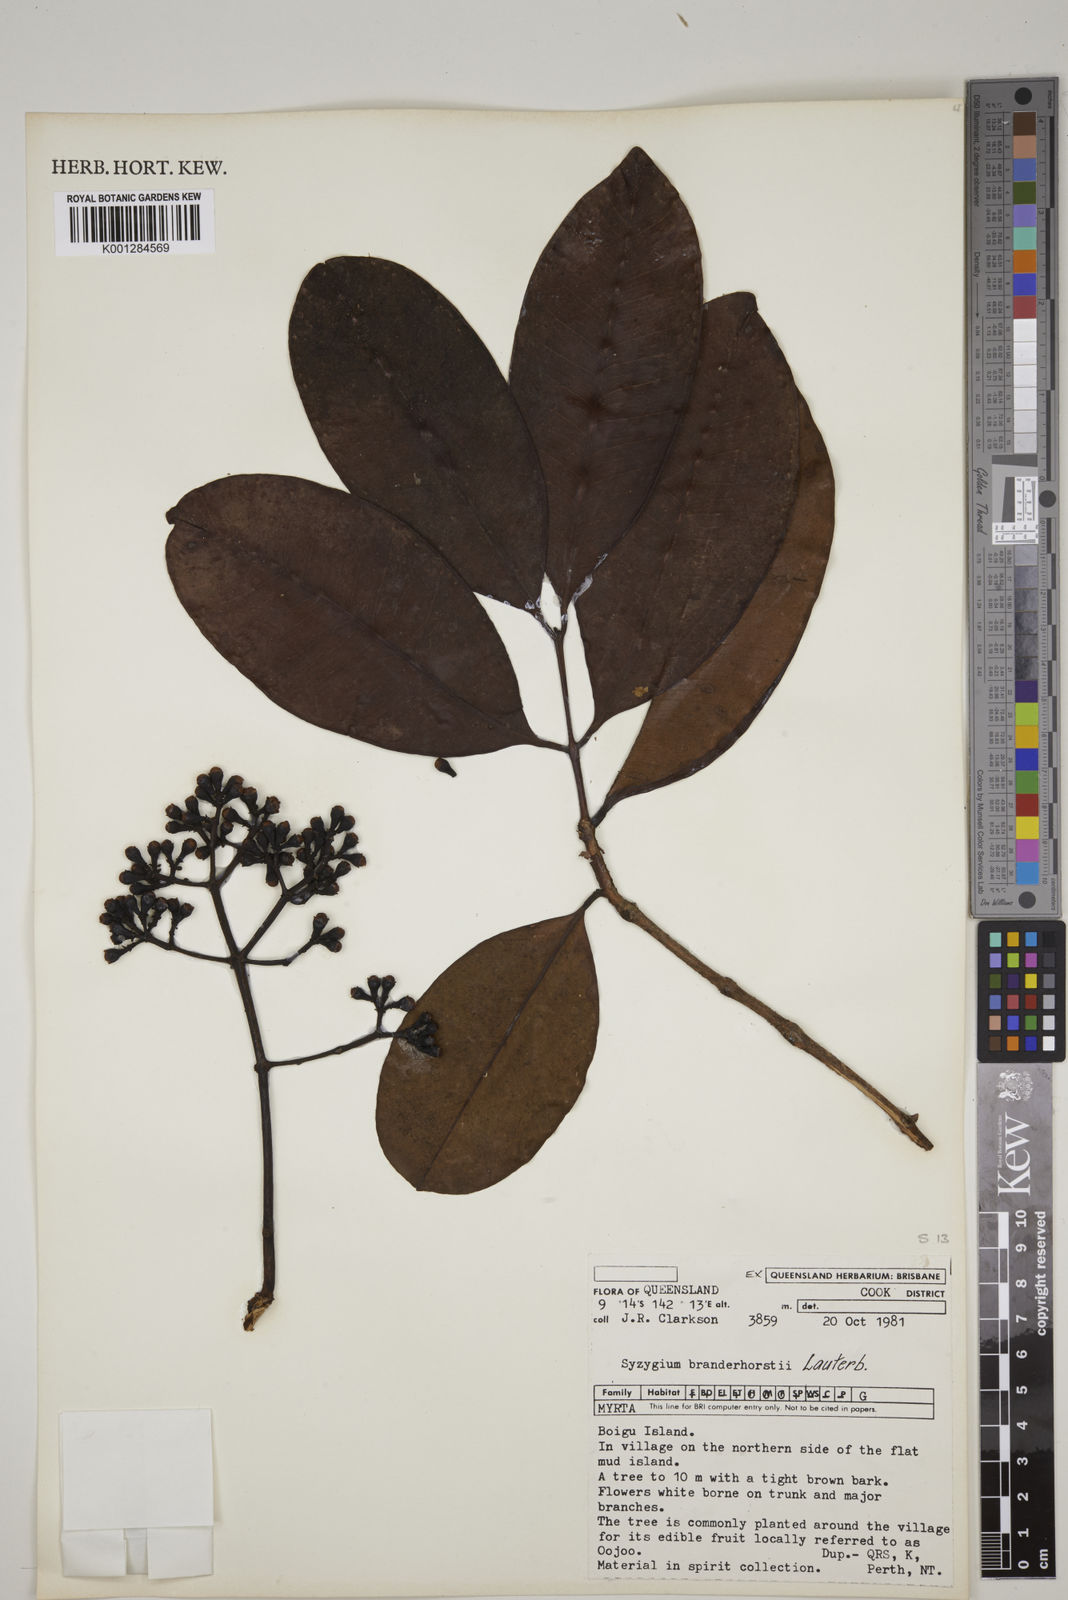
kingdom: Plantae
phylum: Tracheophyta
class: Magnoliopsida
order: Myrtales
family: Myrtaceae
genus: Syzygium
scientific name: Syzygium branderhorstii
